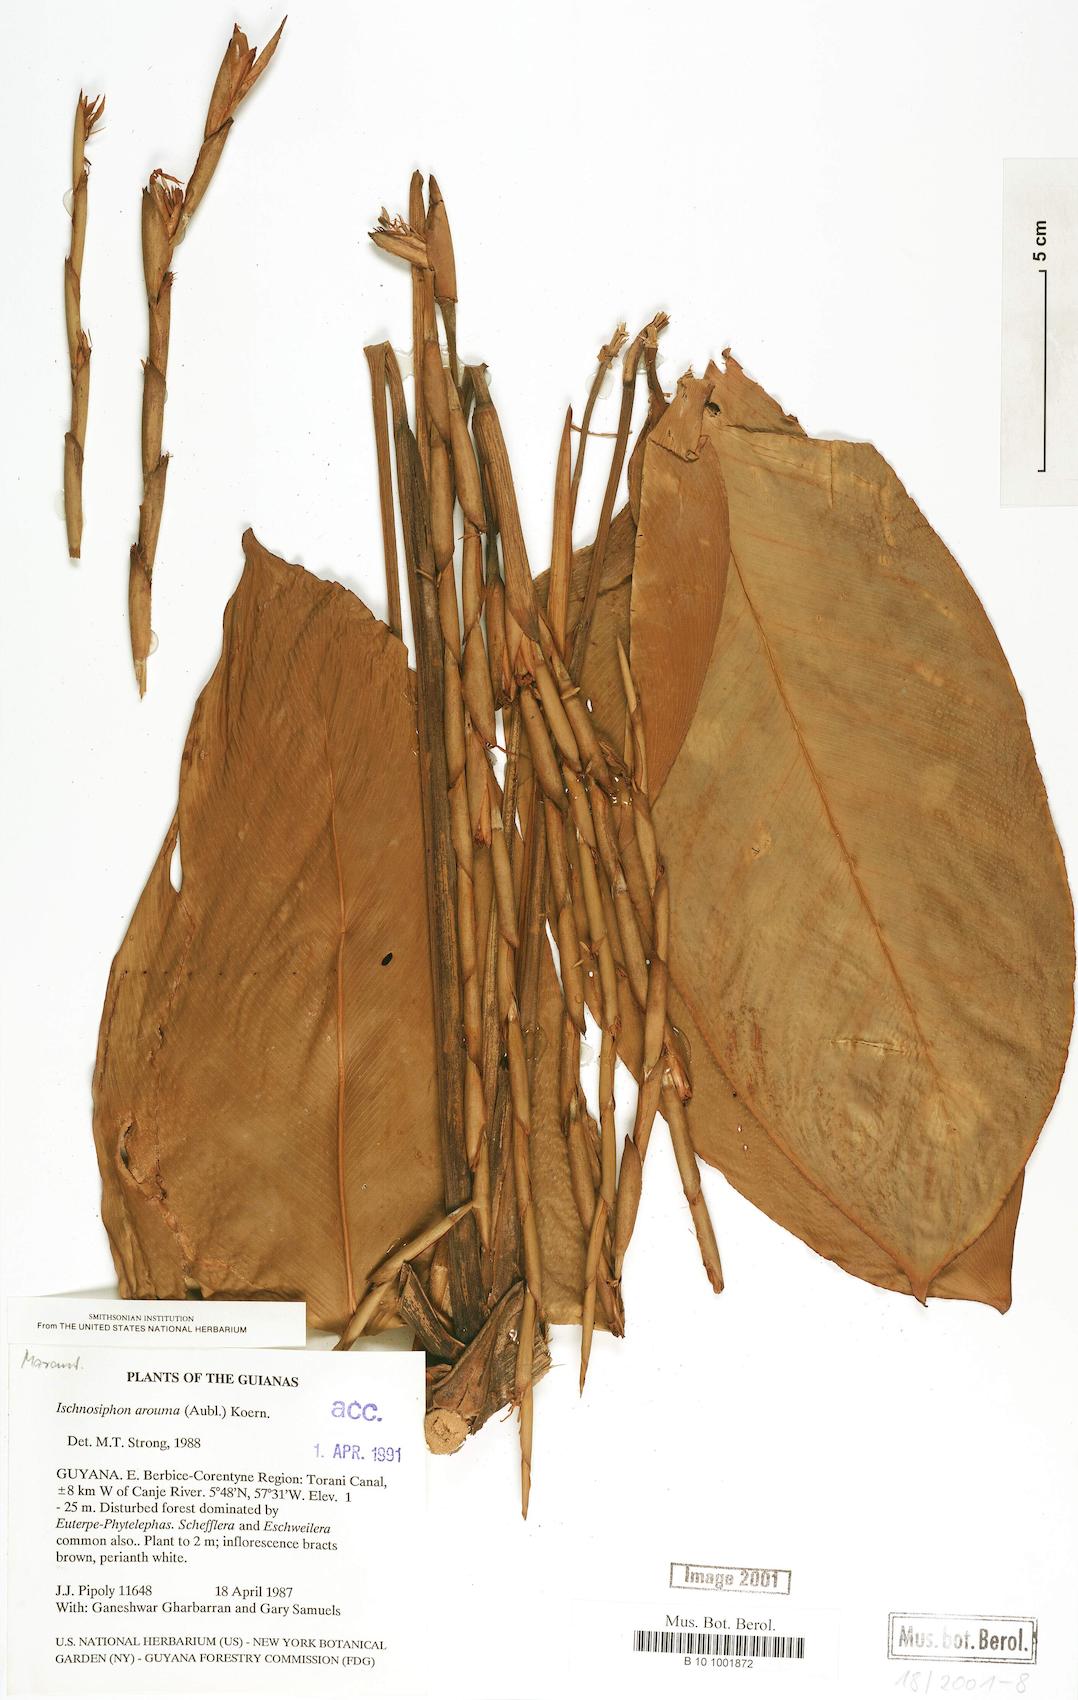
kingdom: Plantae
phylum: Tracheophyta
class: Liliopsida
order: Zingiberales
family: Marantaceae
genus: Ischnosiphon
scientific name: Ischnosiphon arouma
